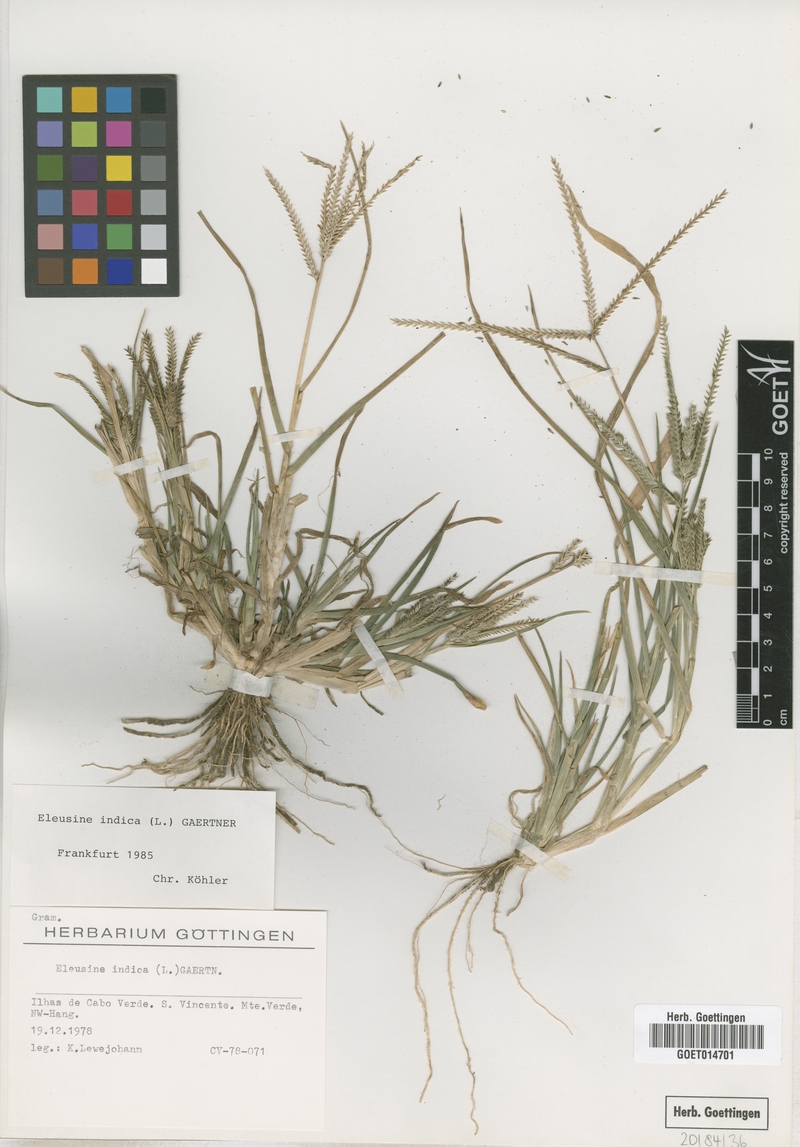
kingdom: Plantae
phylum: Tracheophyta
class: Liliopsida
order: Poales
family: Poaceae
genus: Eleusine
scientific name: Eleusine indica
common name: Yard-grass
